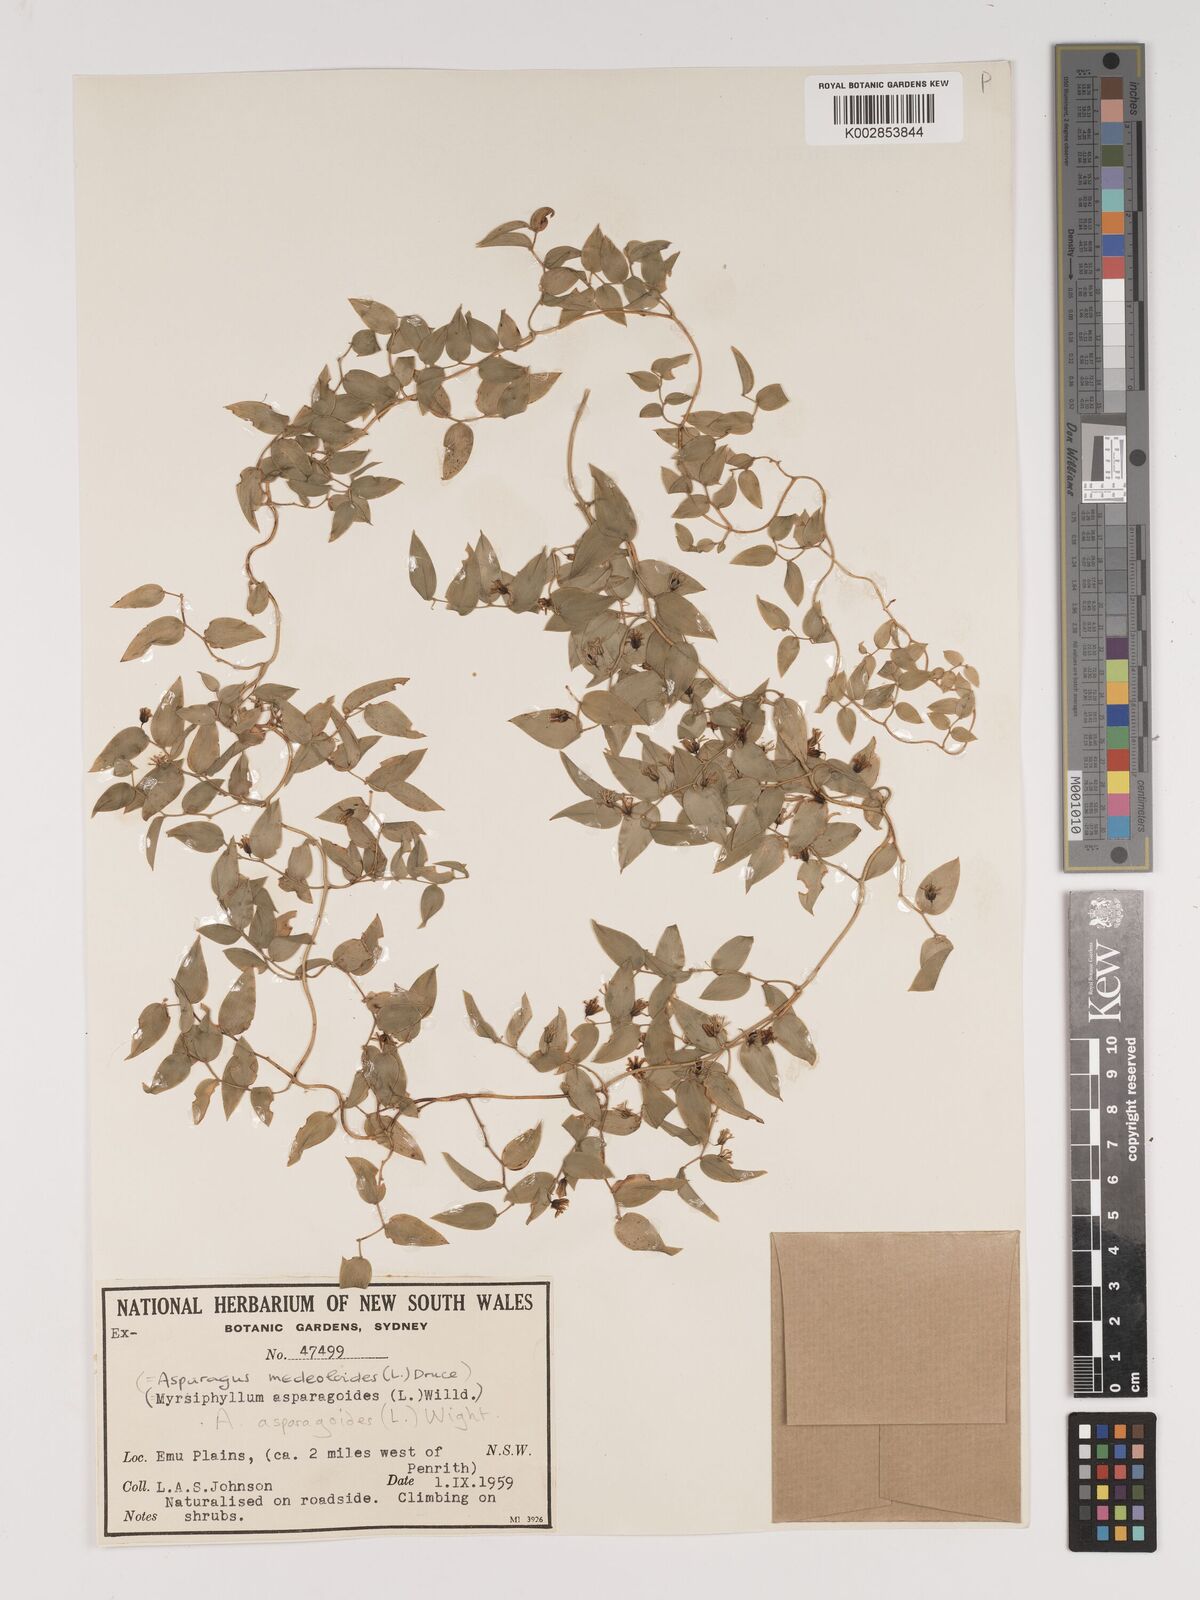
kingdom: Plantae
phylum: Tracheophyta
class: Liliopsida
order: Asparagales
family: Asparagaceae
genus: Asparagus
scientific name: Asparagus asparagoides
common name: African asparagus fern
